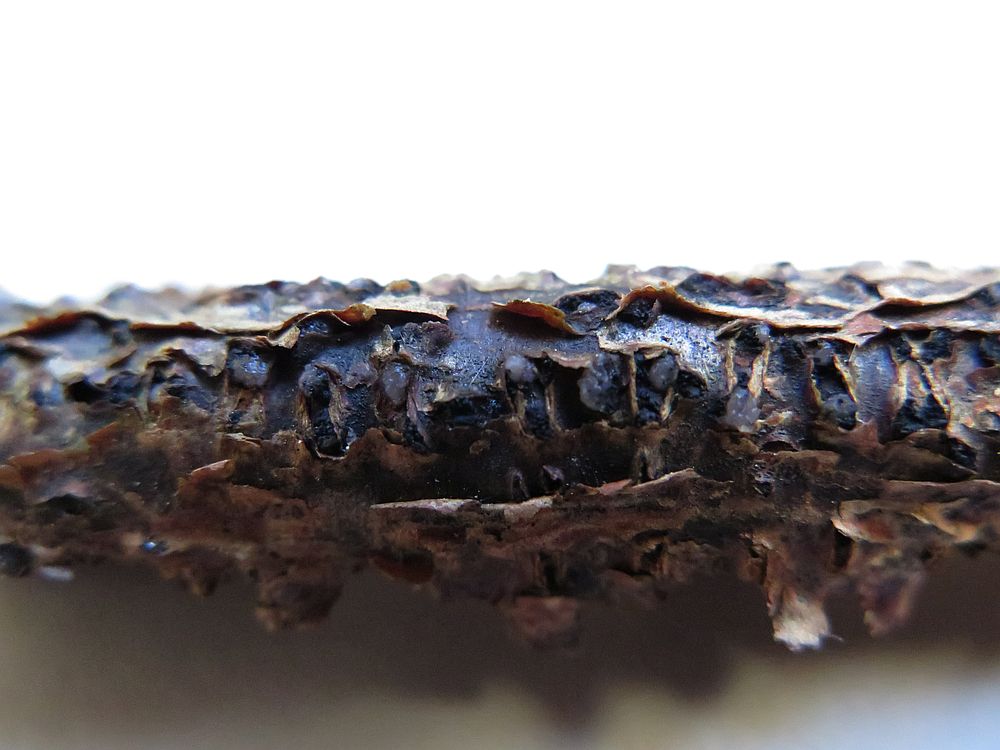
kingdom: Fungi
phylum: Ascomycota
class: Sordariomycetes
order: Diaporthales
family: Diaporthaceae
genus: Diaporthe
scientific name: Diaporthe strumella
